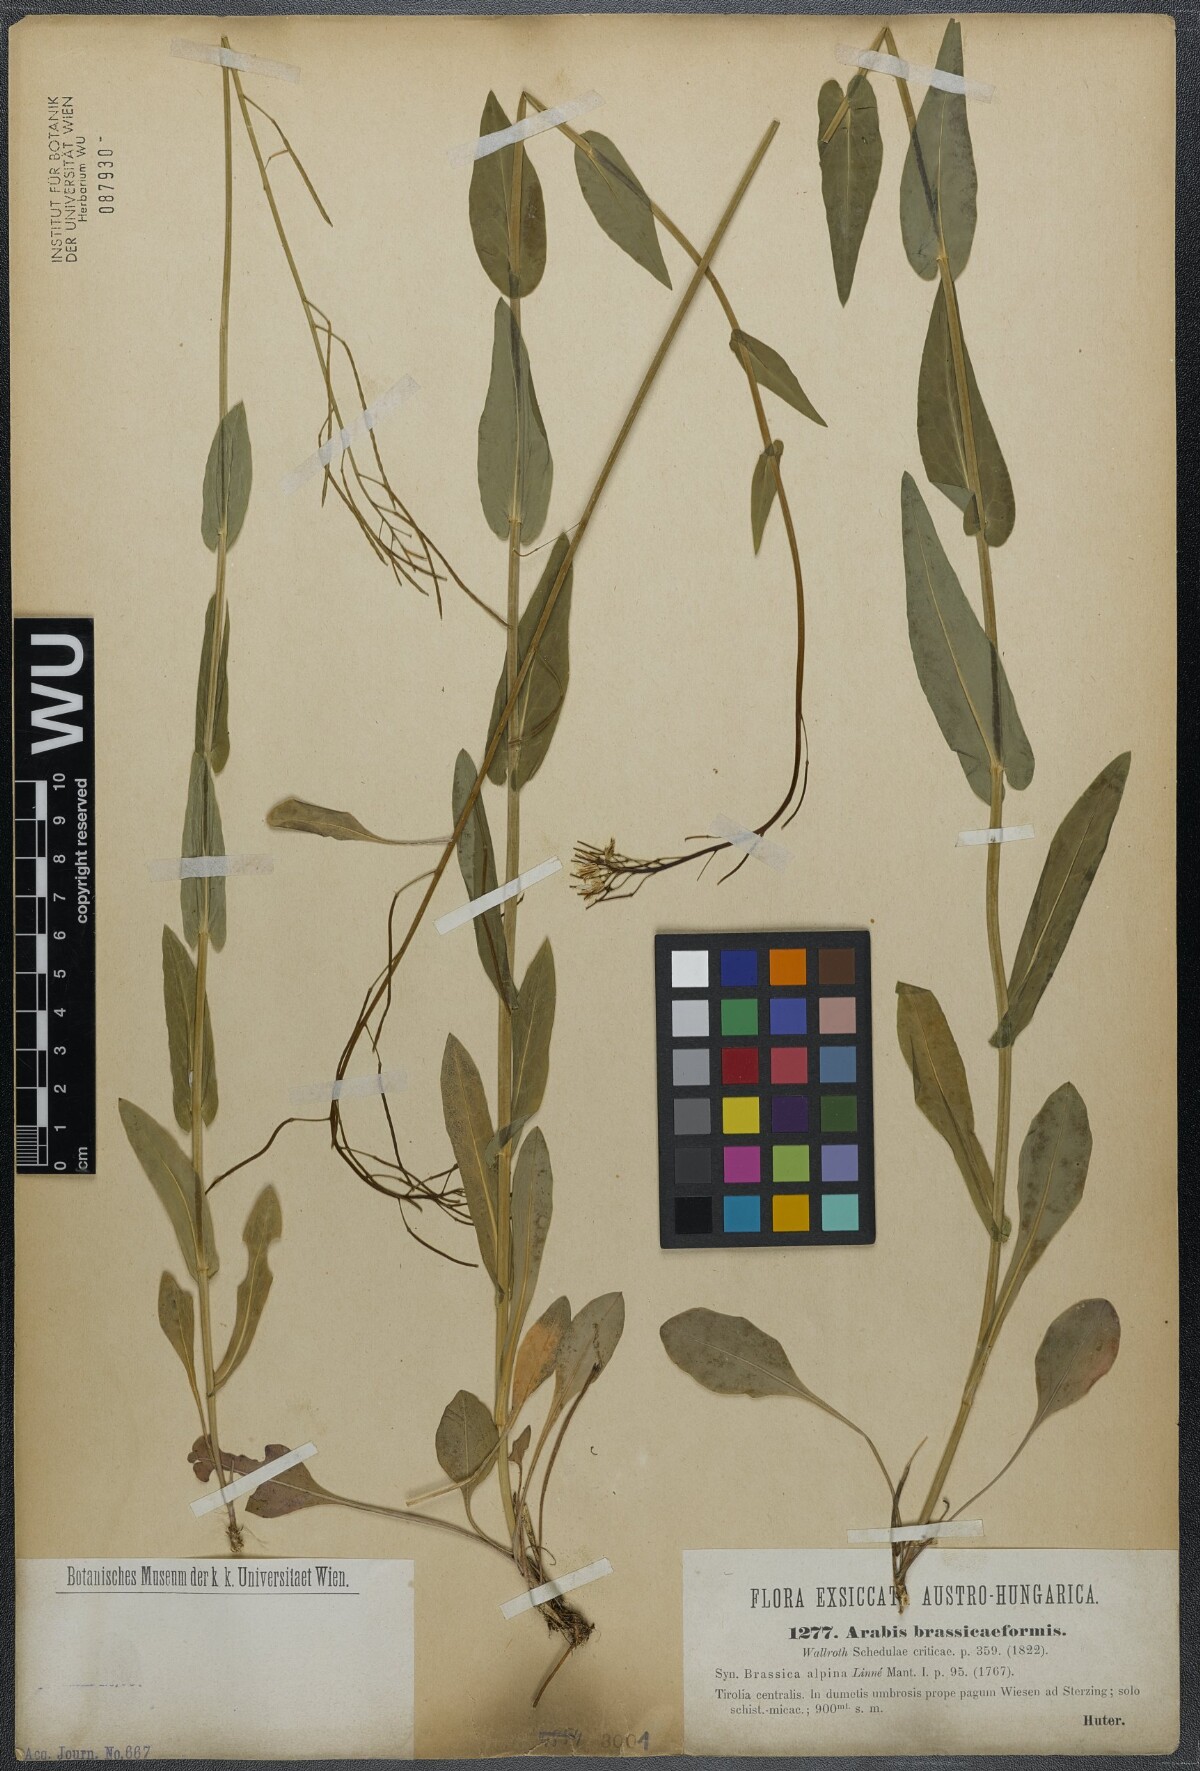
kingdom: Plantae
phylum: Tracheophyta
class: Magnoliopsida
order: Brassicales
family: Brassicaceae
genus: Fourraea
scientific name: Fourraea alpina
